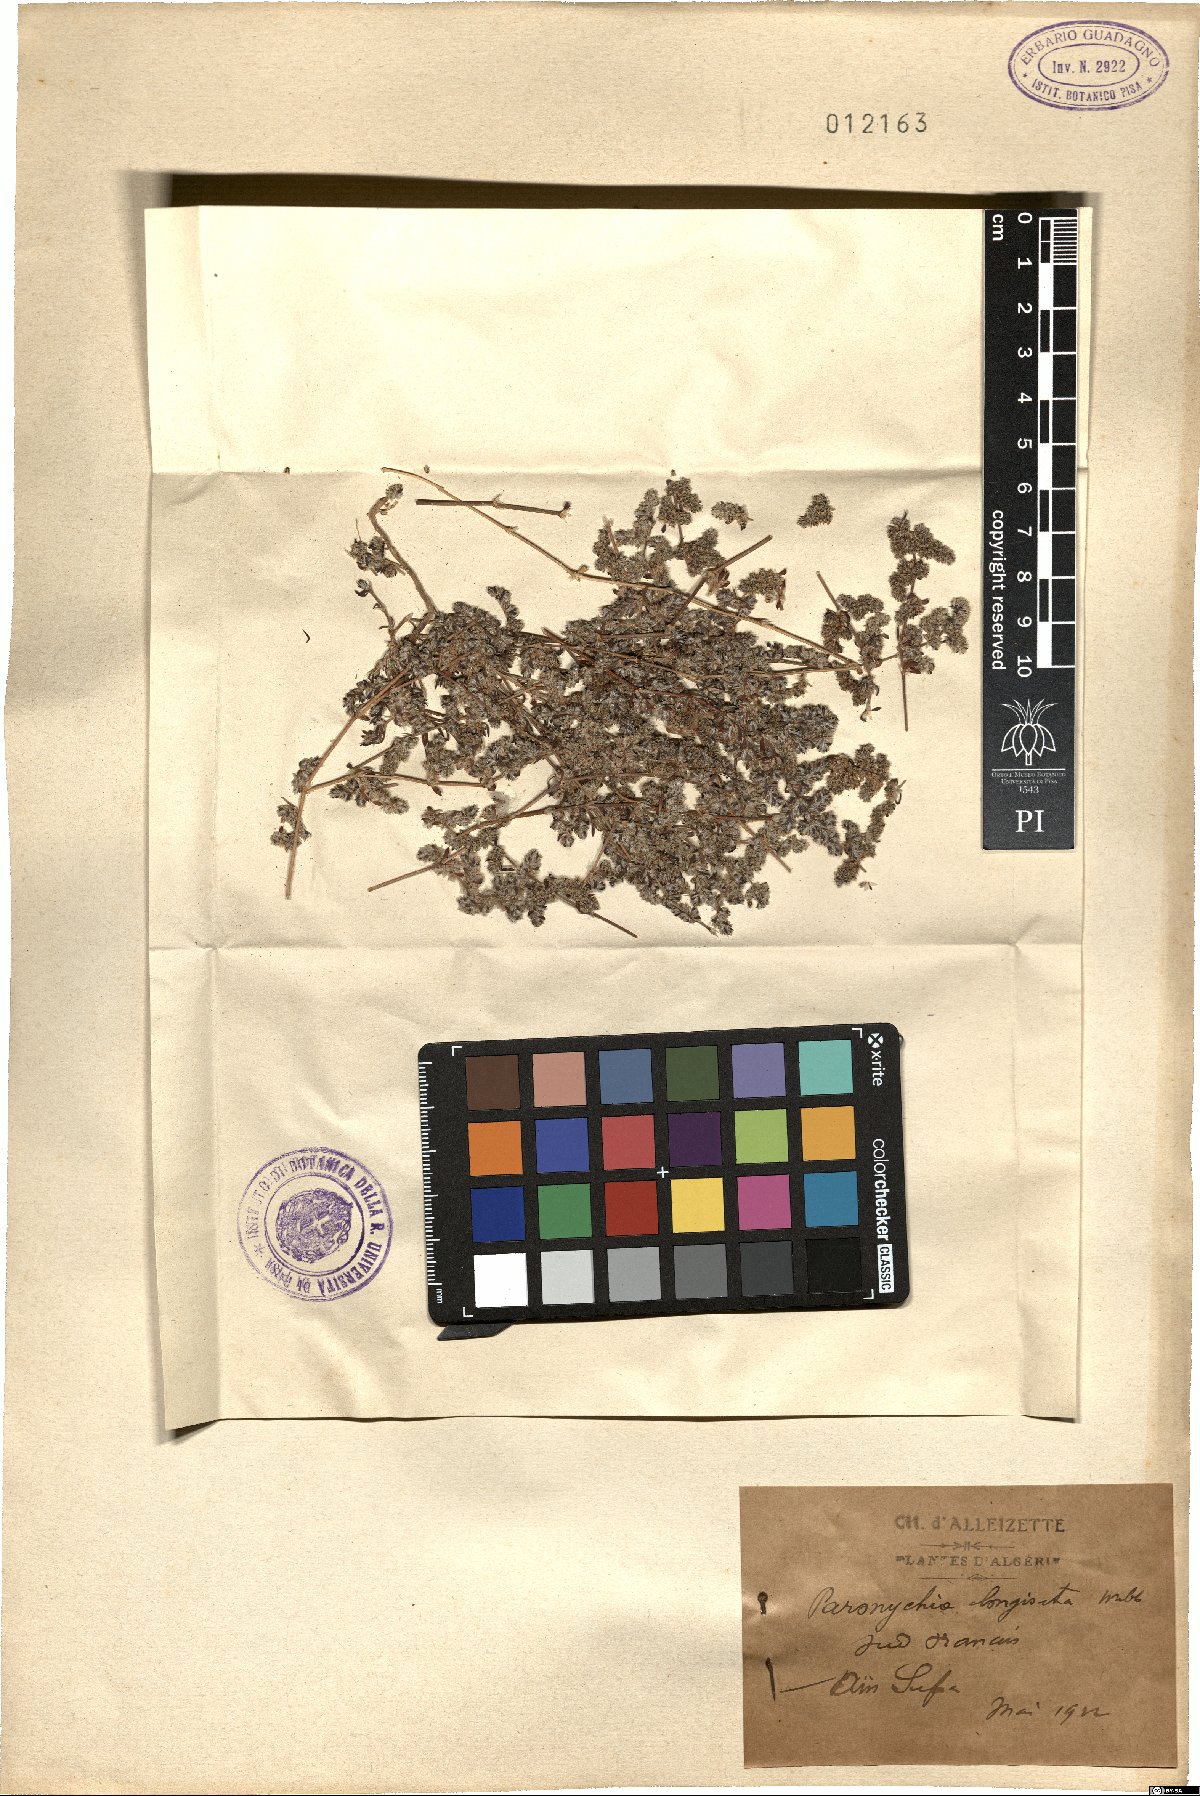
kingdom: Plantae
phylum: Tracheophyta
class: Magnoliopsida
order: Caryophyllales
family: Caryophyllaceae
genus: Paronychia
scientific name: Paronychia arabica
